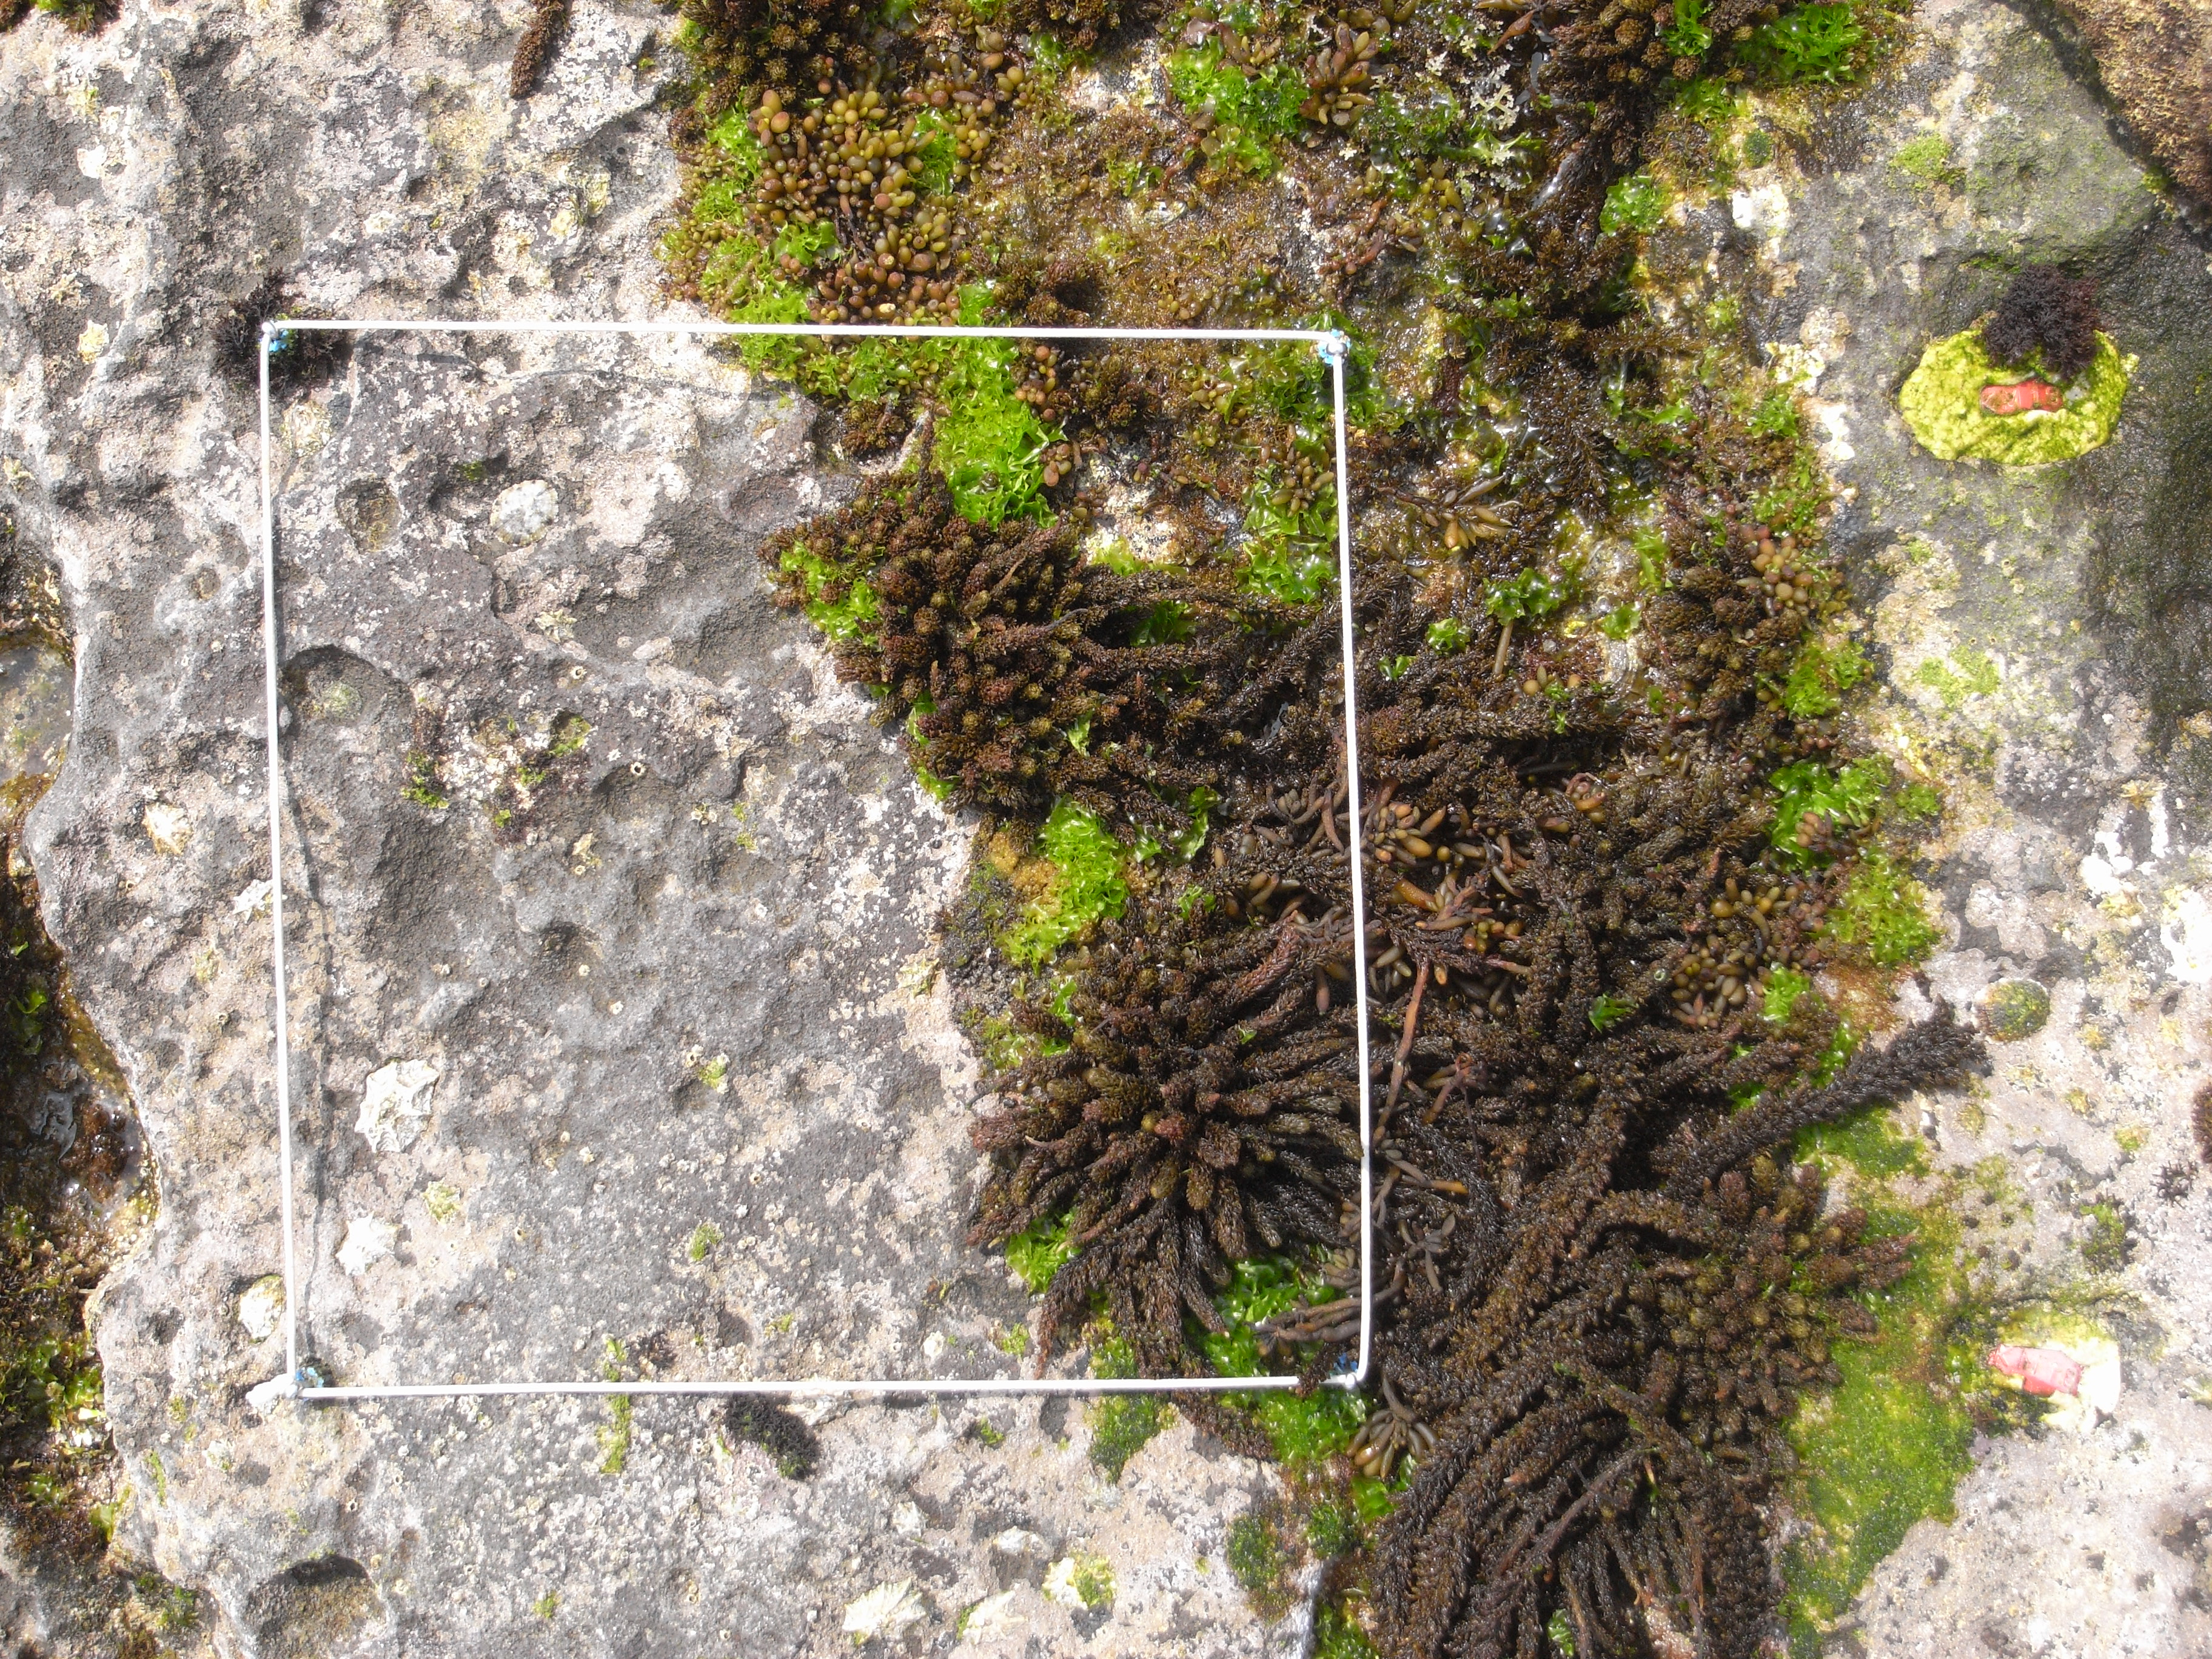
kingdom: Chromista
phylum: Ochrophyta
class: Phaeophyceae
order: Fucales
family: Sargassaceae
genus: Sargassum
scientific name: Sargassum fusiforme
